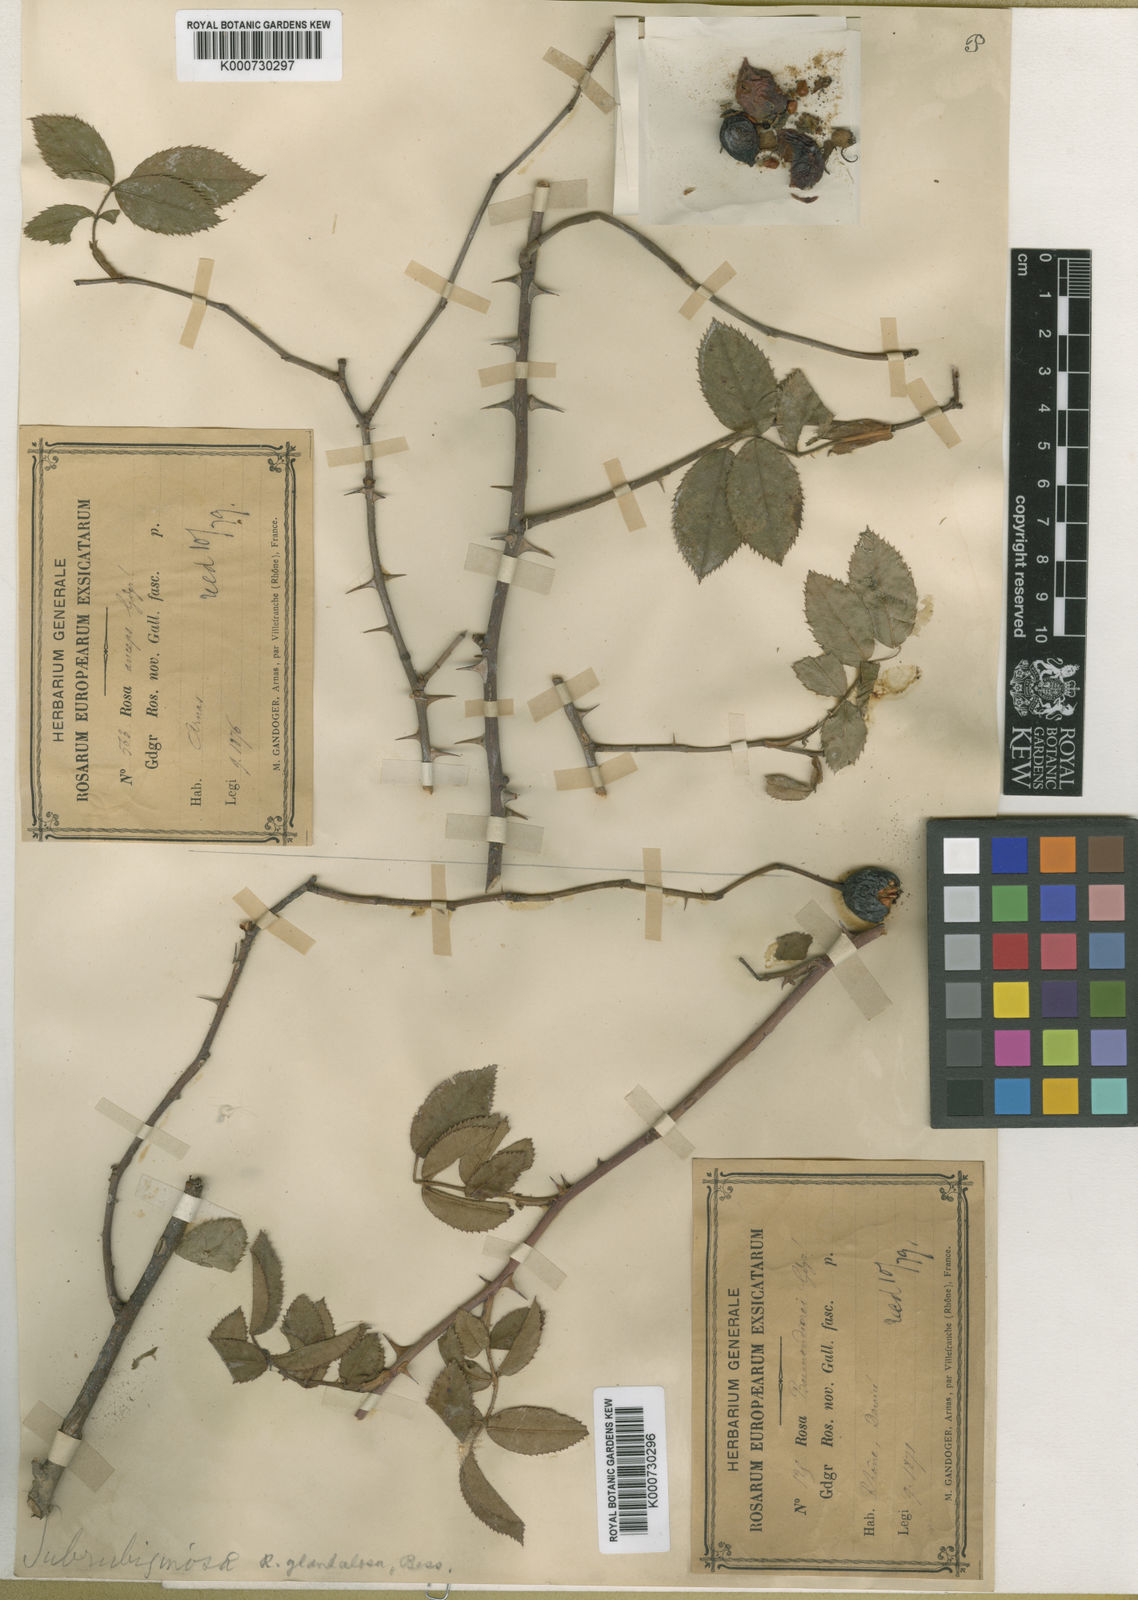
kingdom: Plantae
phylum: Tracheophyta
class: Magnoliopsida
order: Rosales
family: Rosaceae
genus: Rosa
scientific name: Rosa marginata
